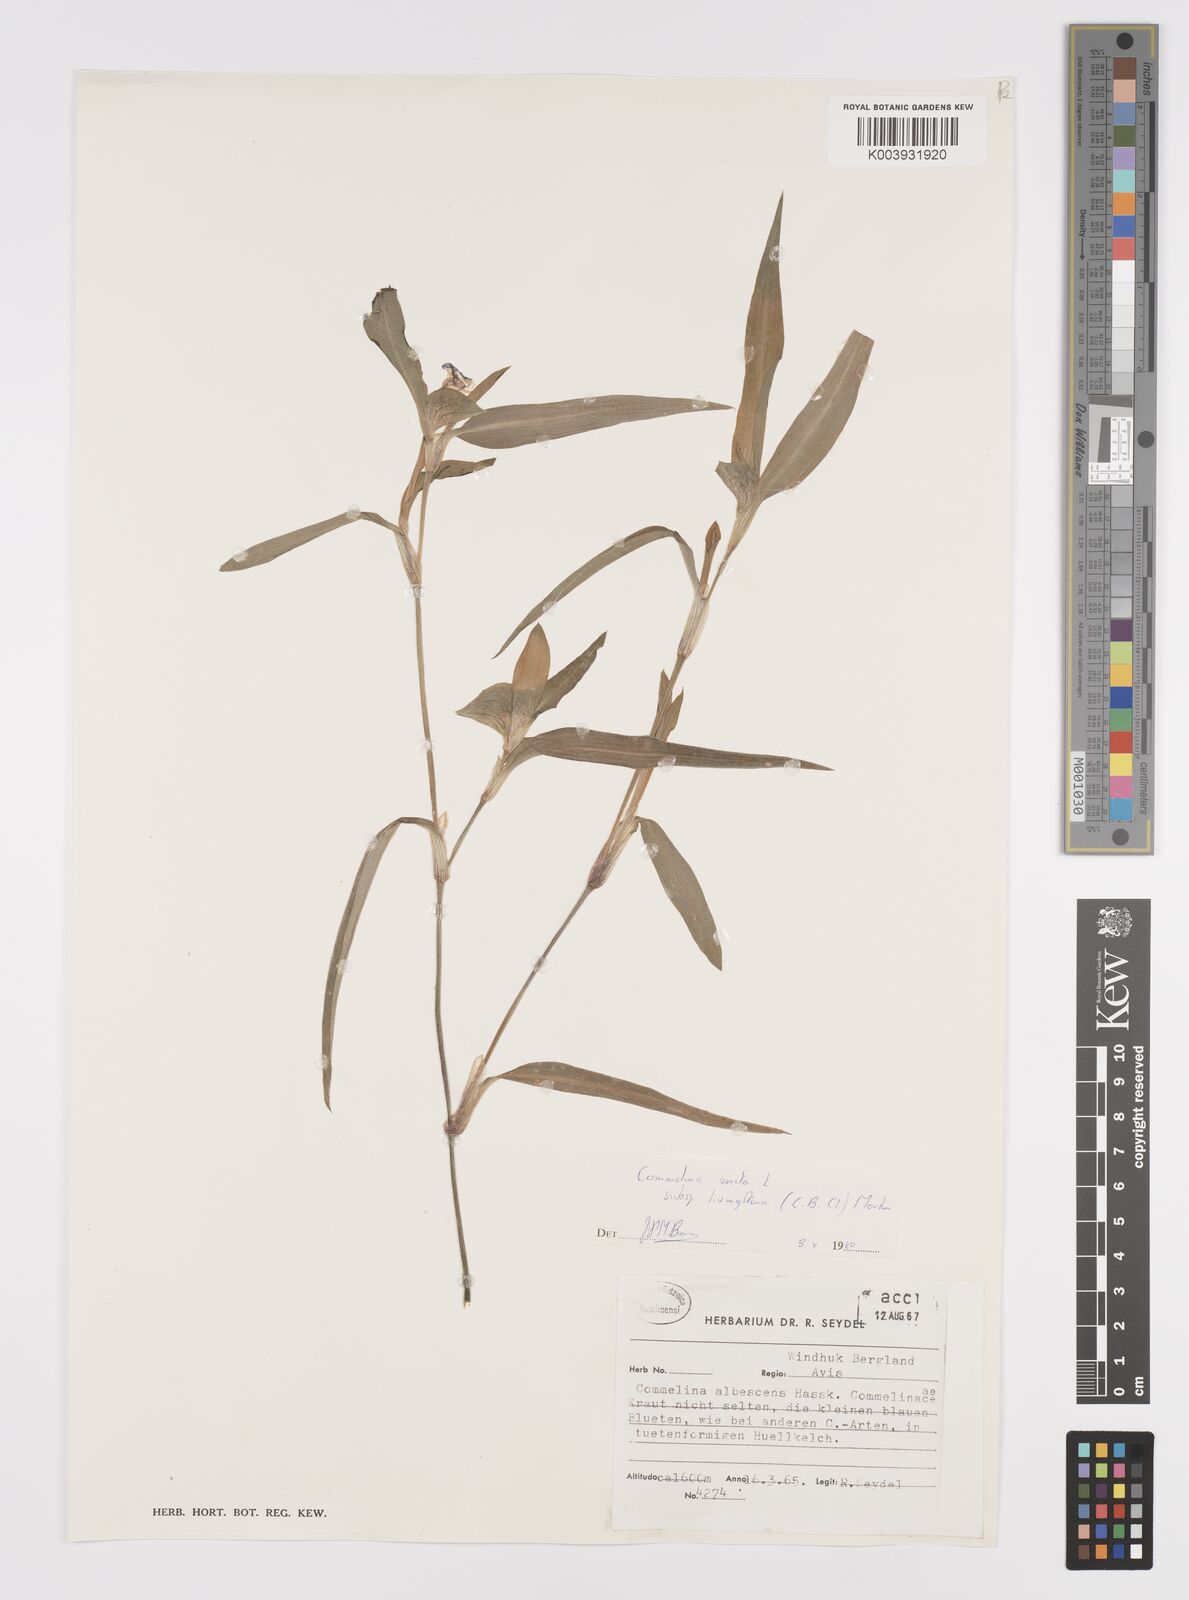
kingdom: Plantae
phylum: Tracheophyta
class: Liliopsida
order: Commelinales
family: Commelinaceae
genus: Commelina
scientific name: Commelina erecta
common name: Blousel blommetjie
